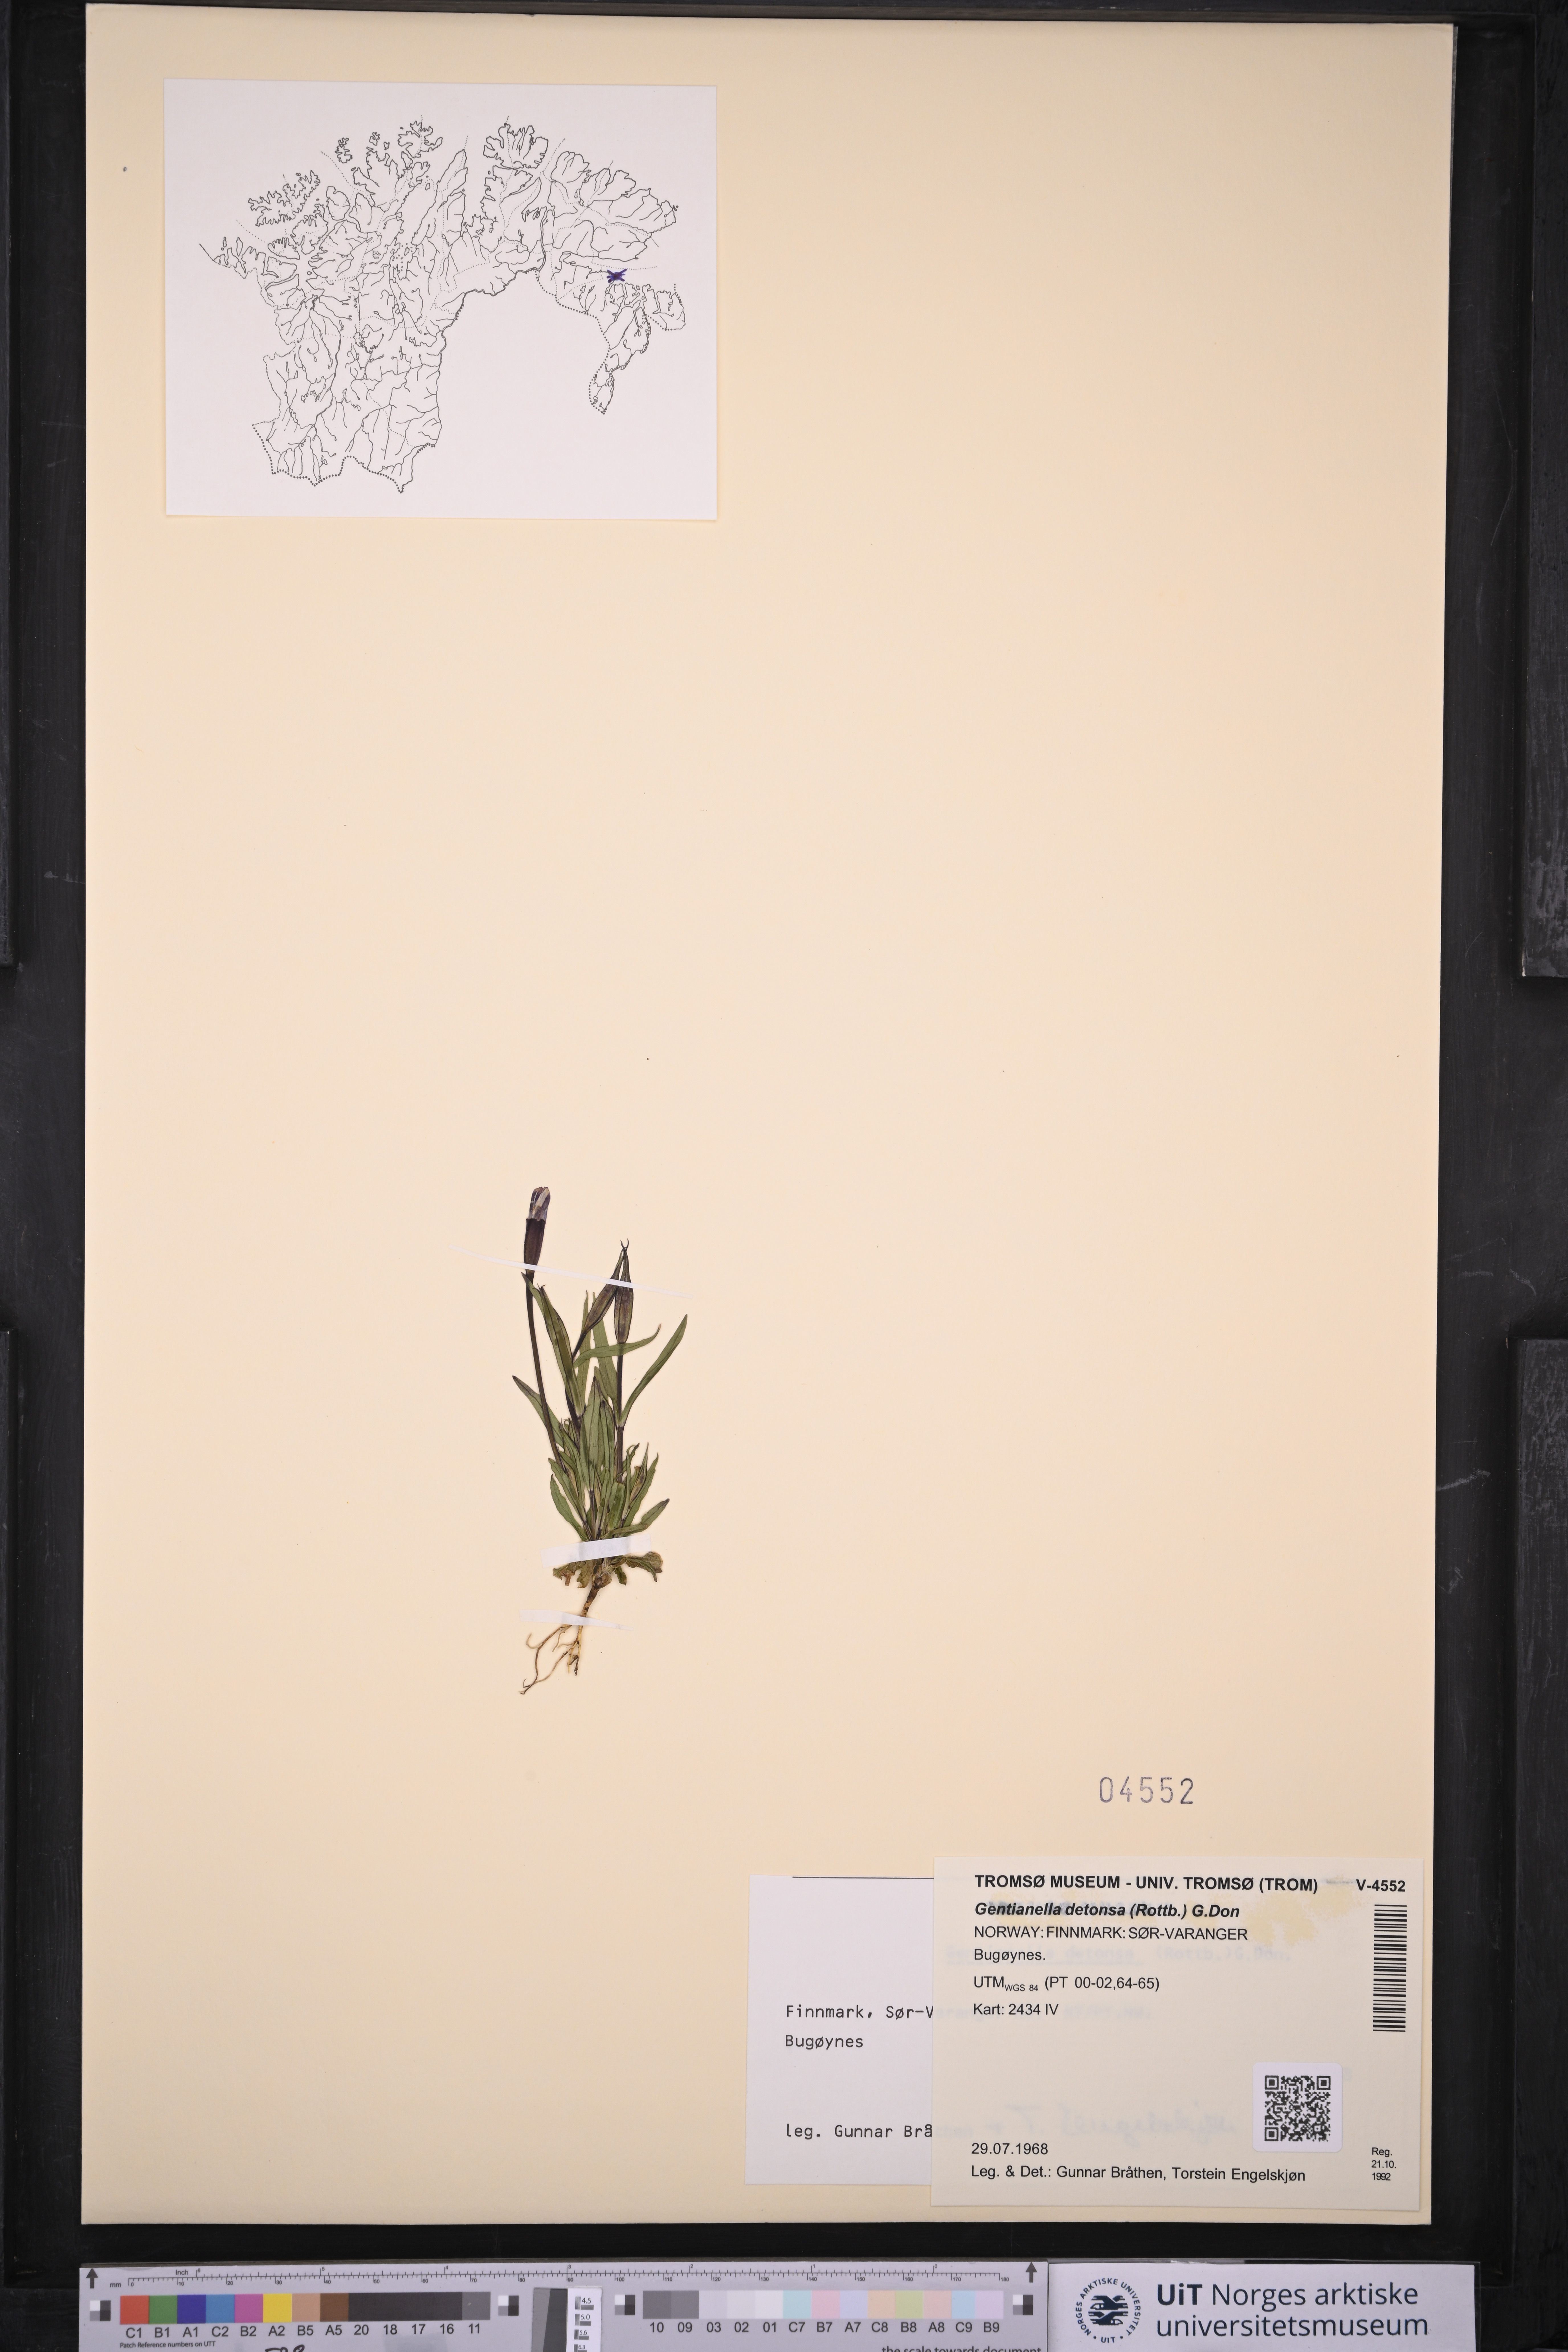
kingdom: Plantae
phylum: Tracheophyta
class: Magnoliopsida
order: Gentianales
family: Gentianaceae
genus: Gentianopsis
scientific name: Gentianopsis detonsa
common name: Fringed-gentian
